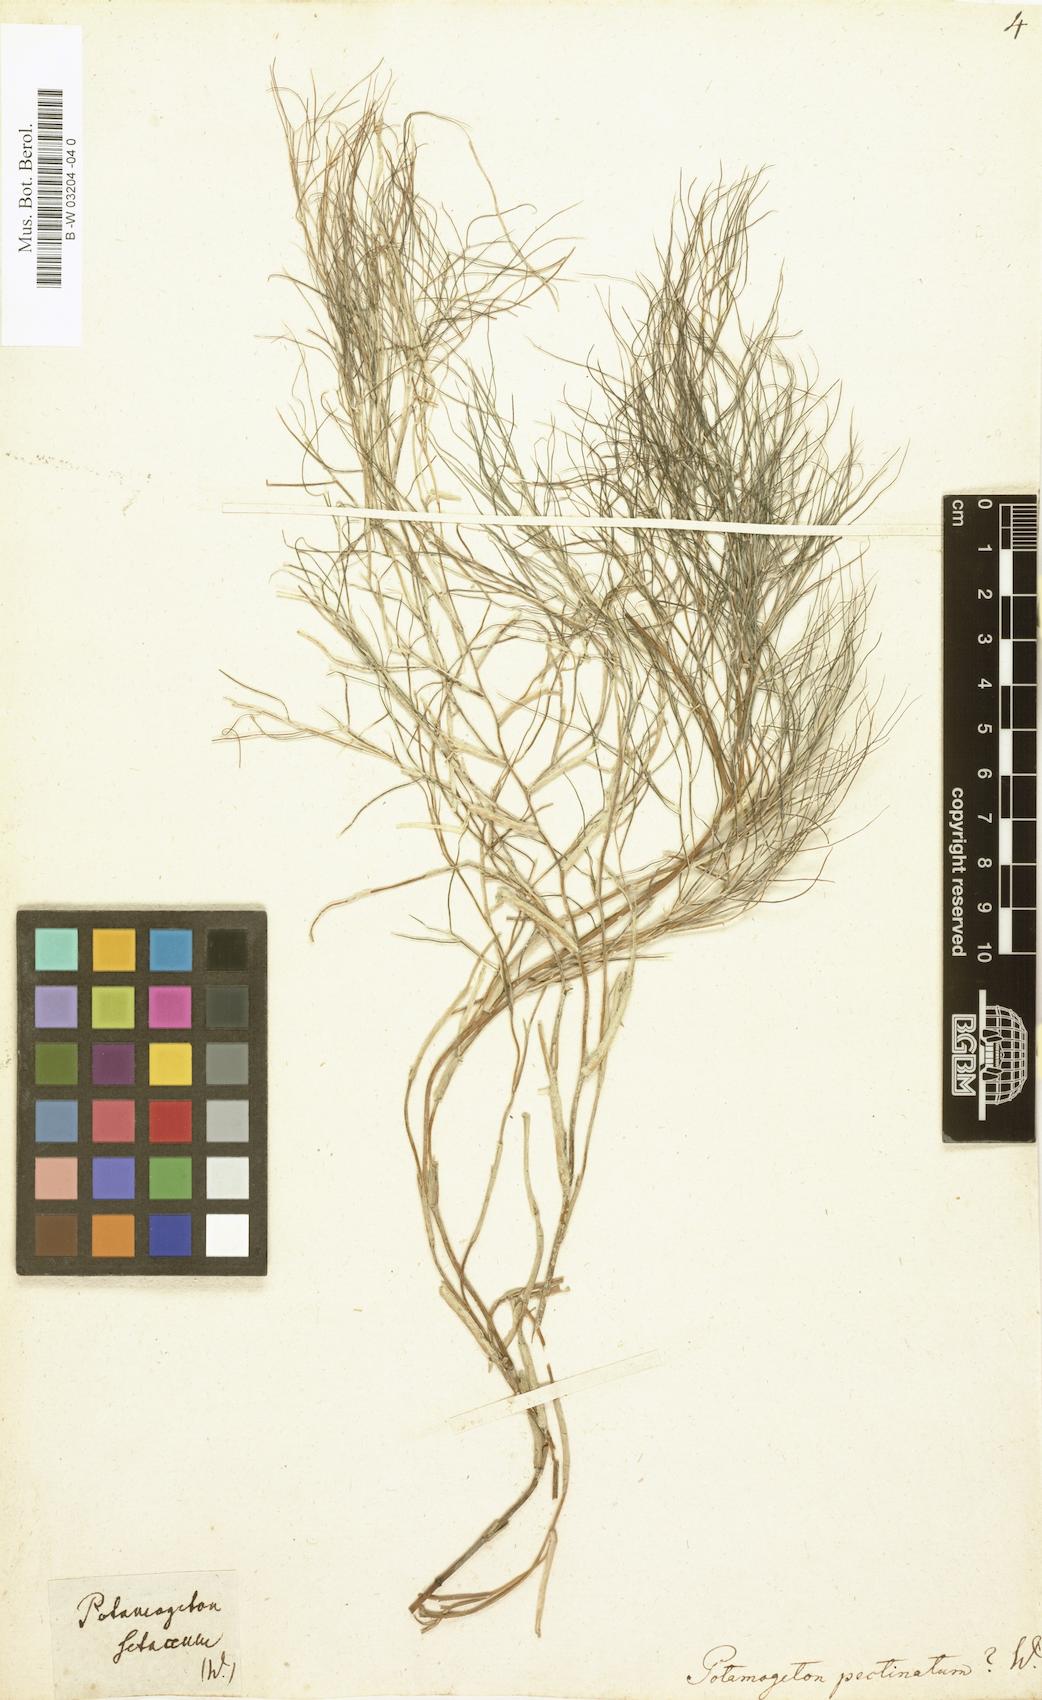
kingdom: Plantae
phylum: Tracheophyta
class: Liliopsida
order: Alismatales
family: Potamogetonaceae
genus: Stuckenia
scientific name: Stuckenia pectinata
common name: Sago pondweed
